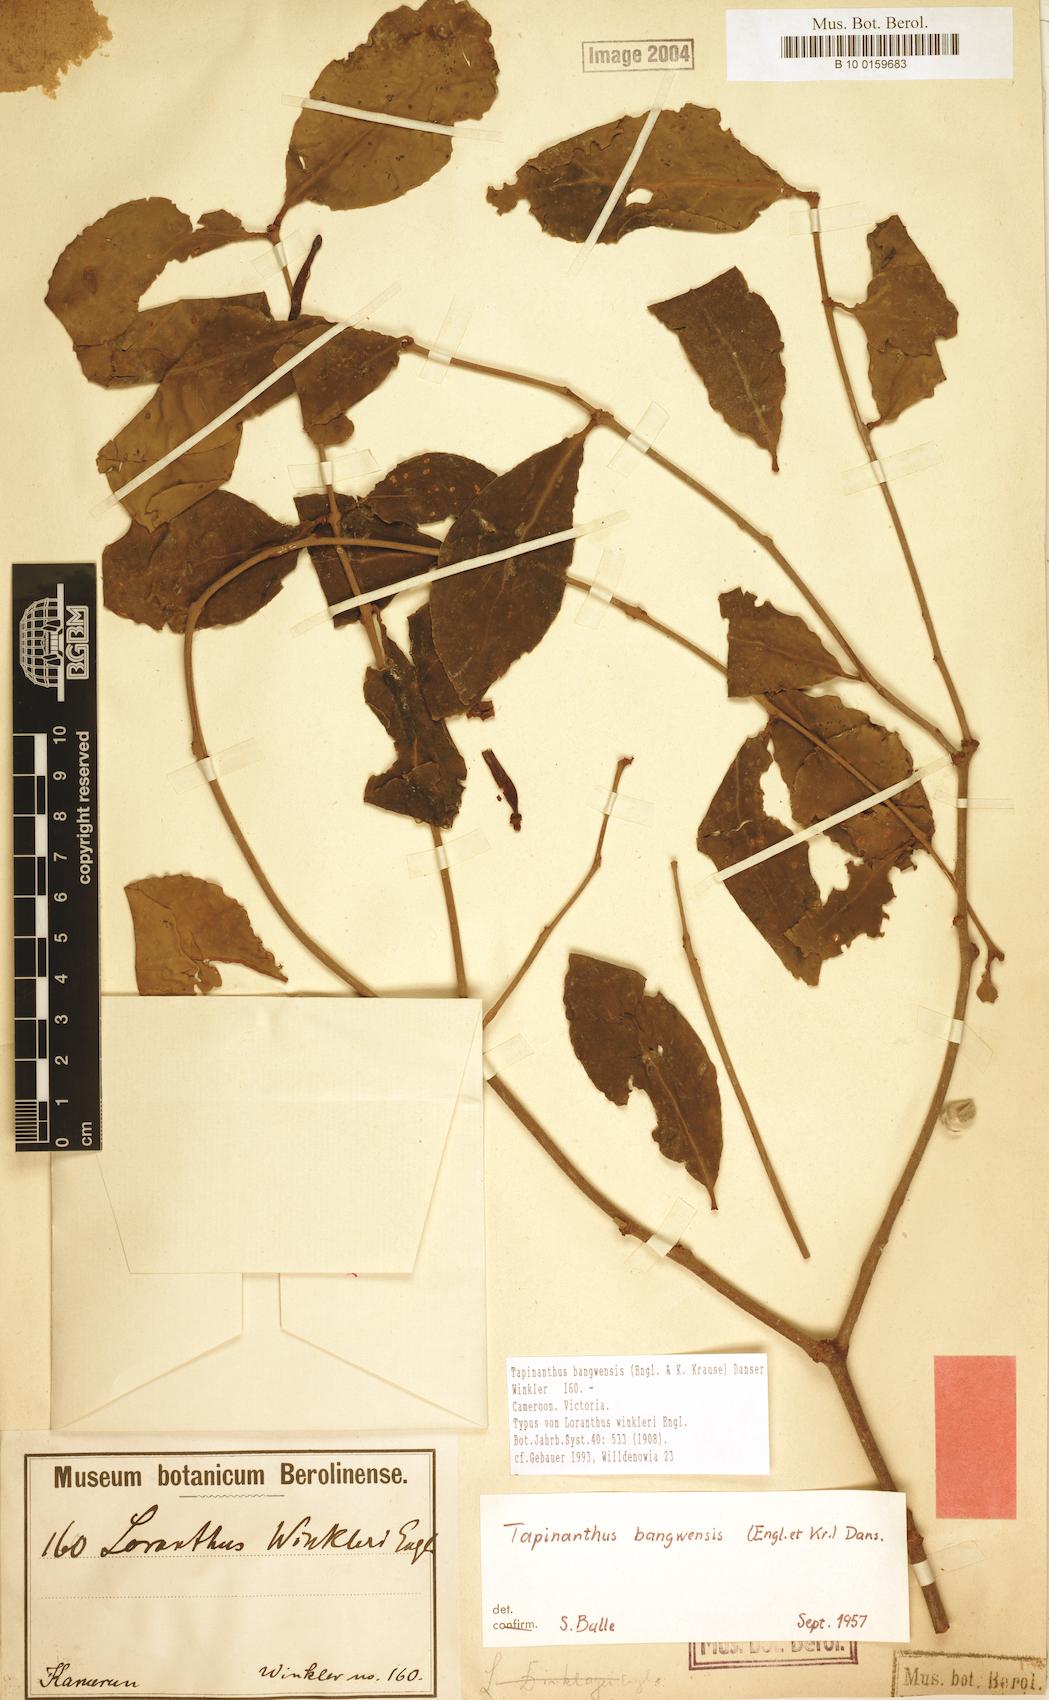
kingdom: Plantae
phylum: Tracheophyta
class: Magnoliopsida
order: Santalales
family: Loranthaceae
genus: Tapinanthus
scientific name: Tapinanthus globiferus
